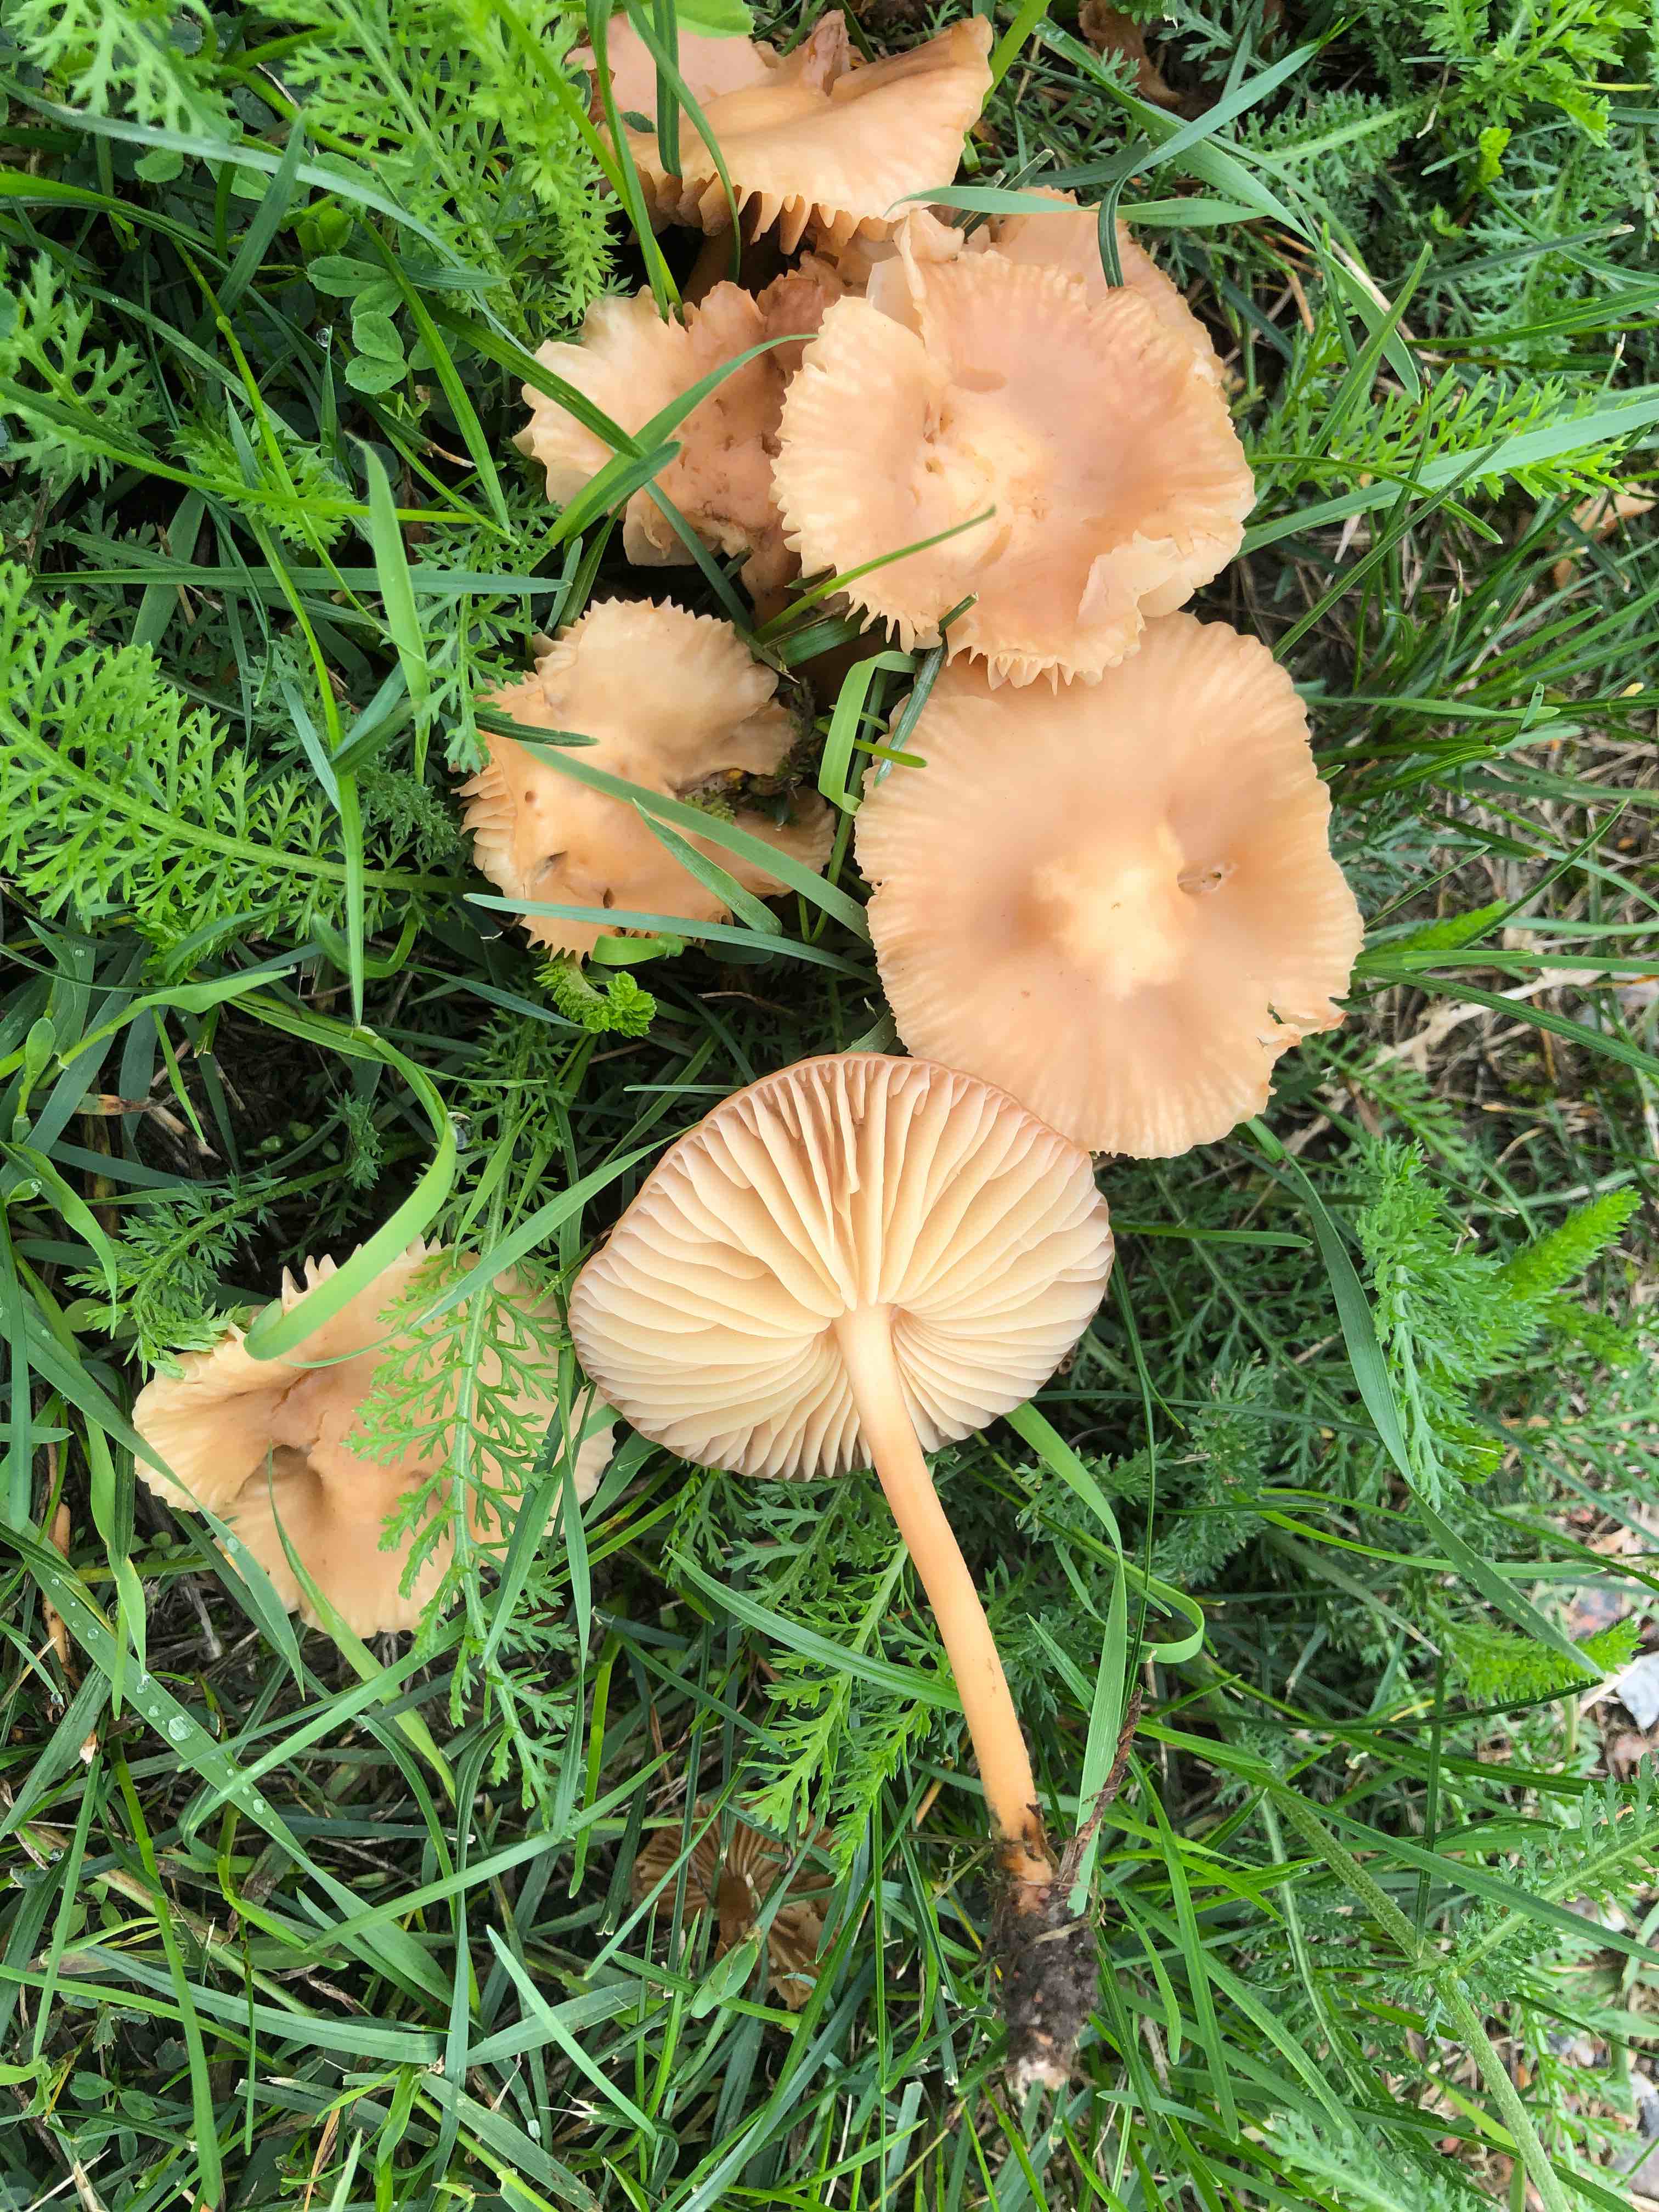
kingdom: Fungi
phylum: Basidiomycota
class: Agaricomycetes
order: Agaricales
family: Marasmiaceae
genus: Marasmius
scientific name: Marasmius oreades
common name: elledans-bruskhat
